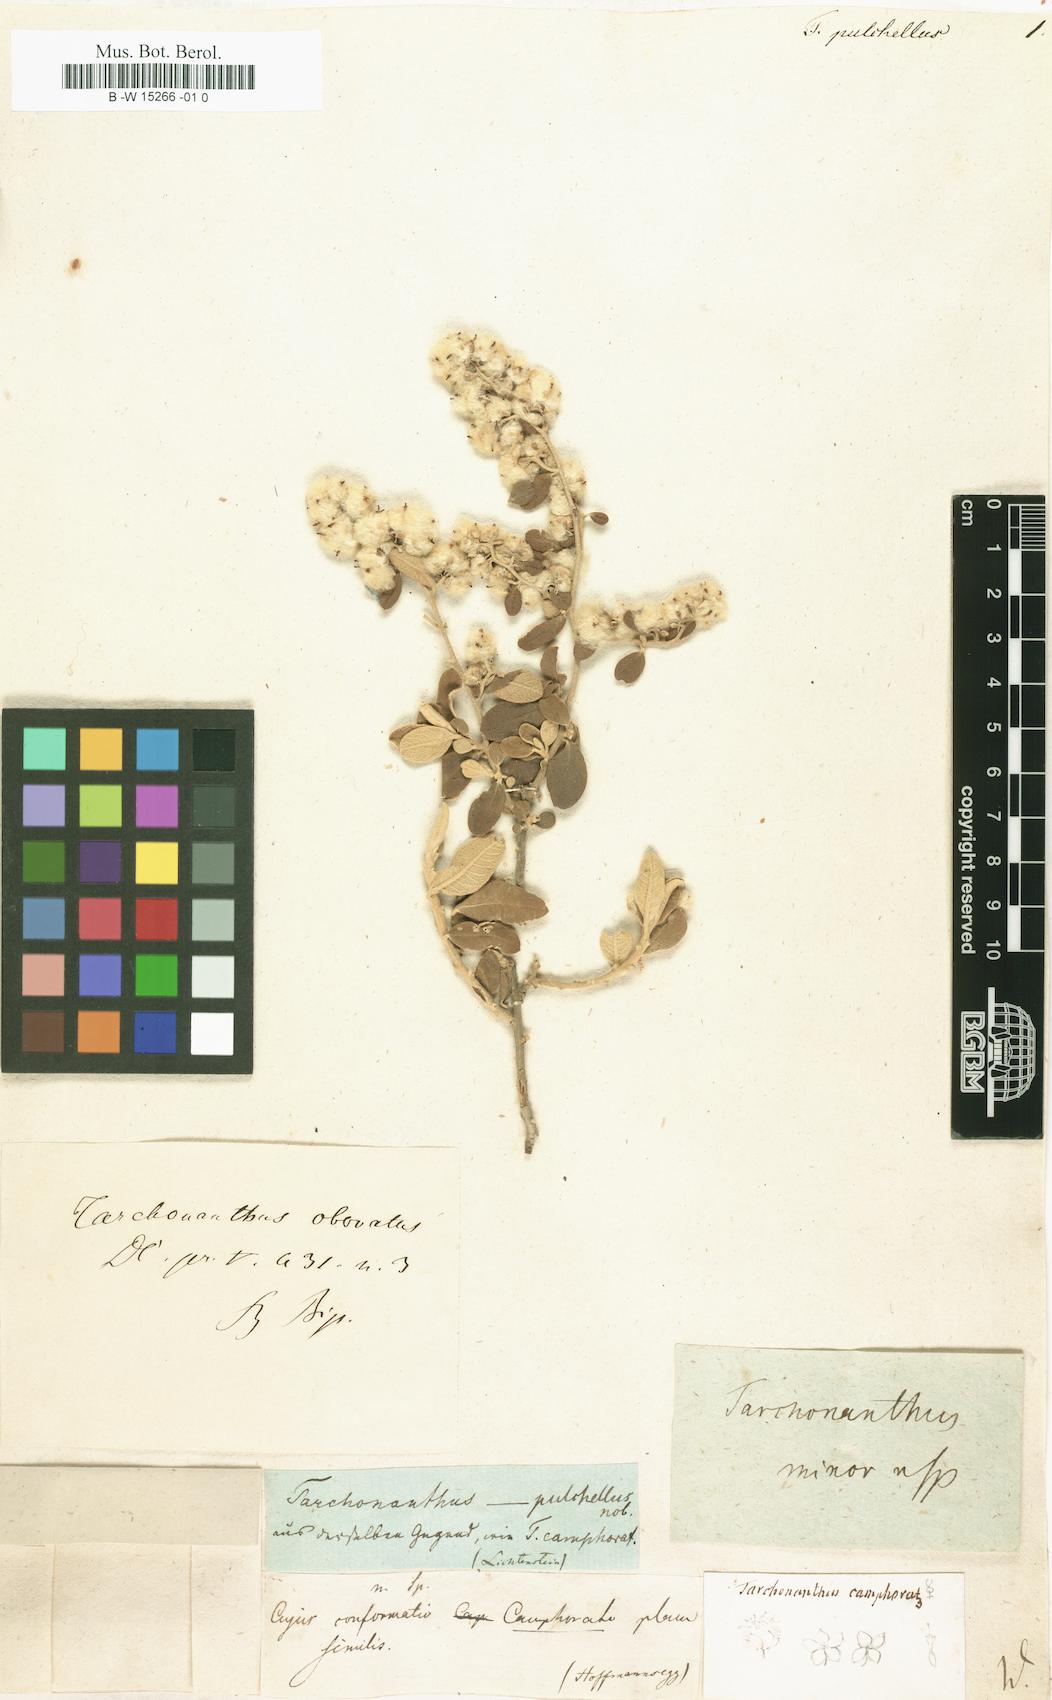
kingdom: Plantae
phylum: Tracheophyta
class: Magnoliopsida
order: Asterales
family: Asteraceae
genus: Tarchonanthus
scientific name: Tarchonanthus
